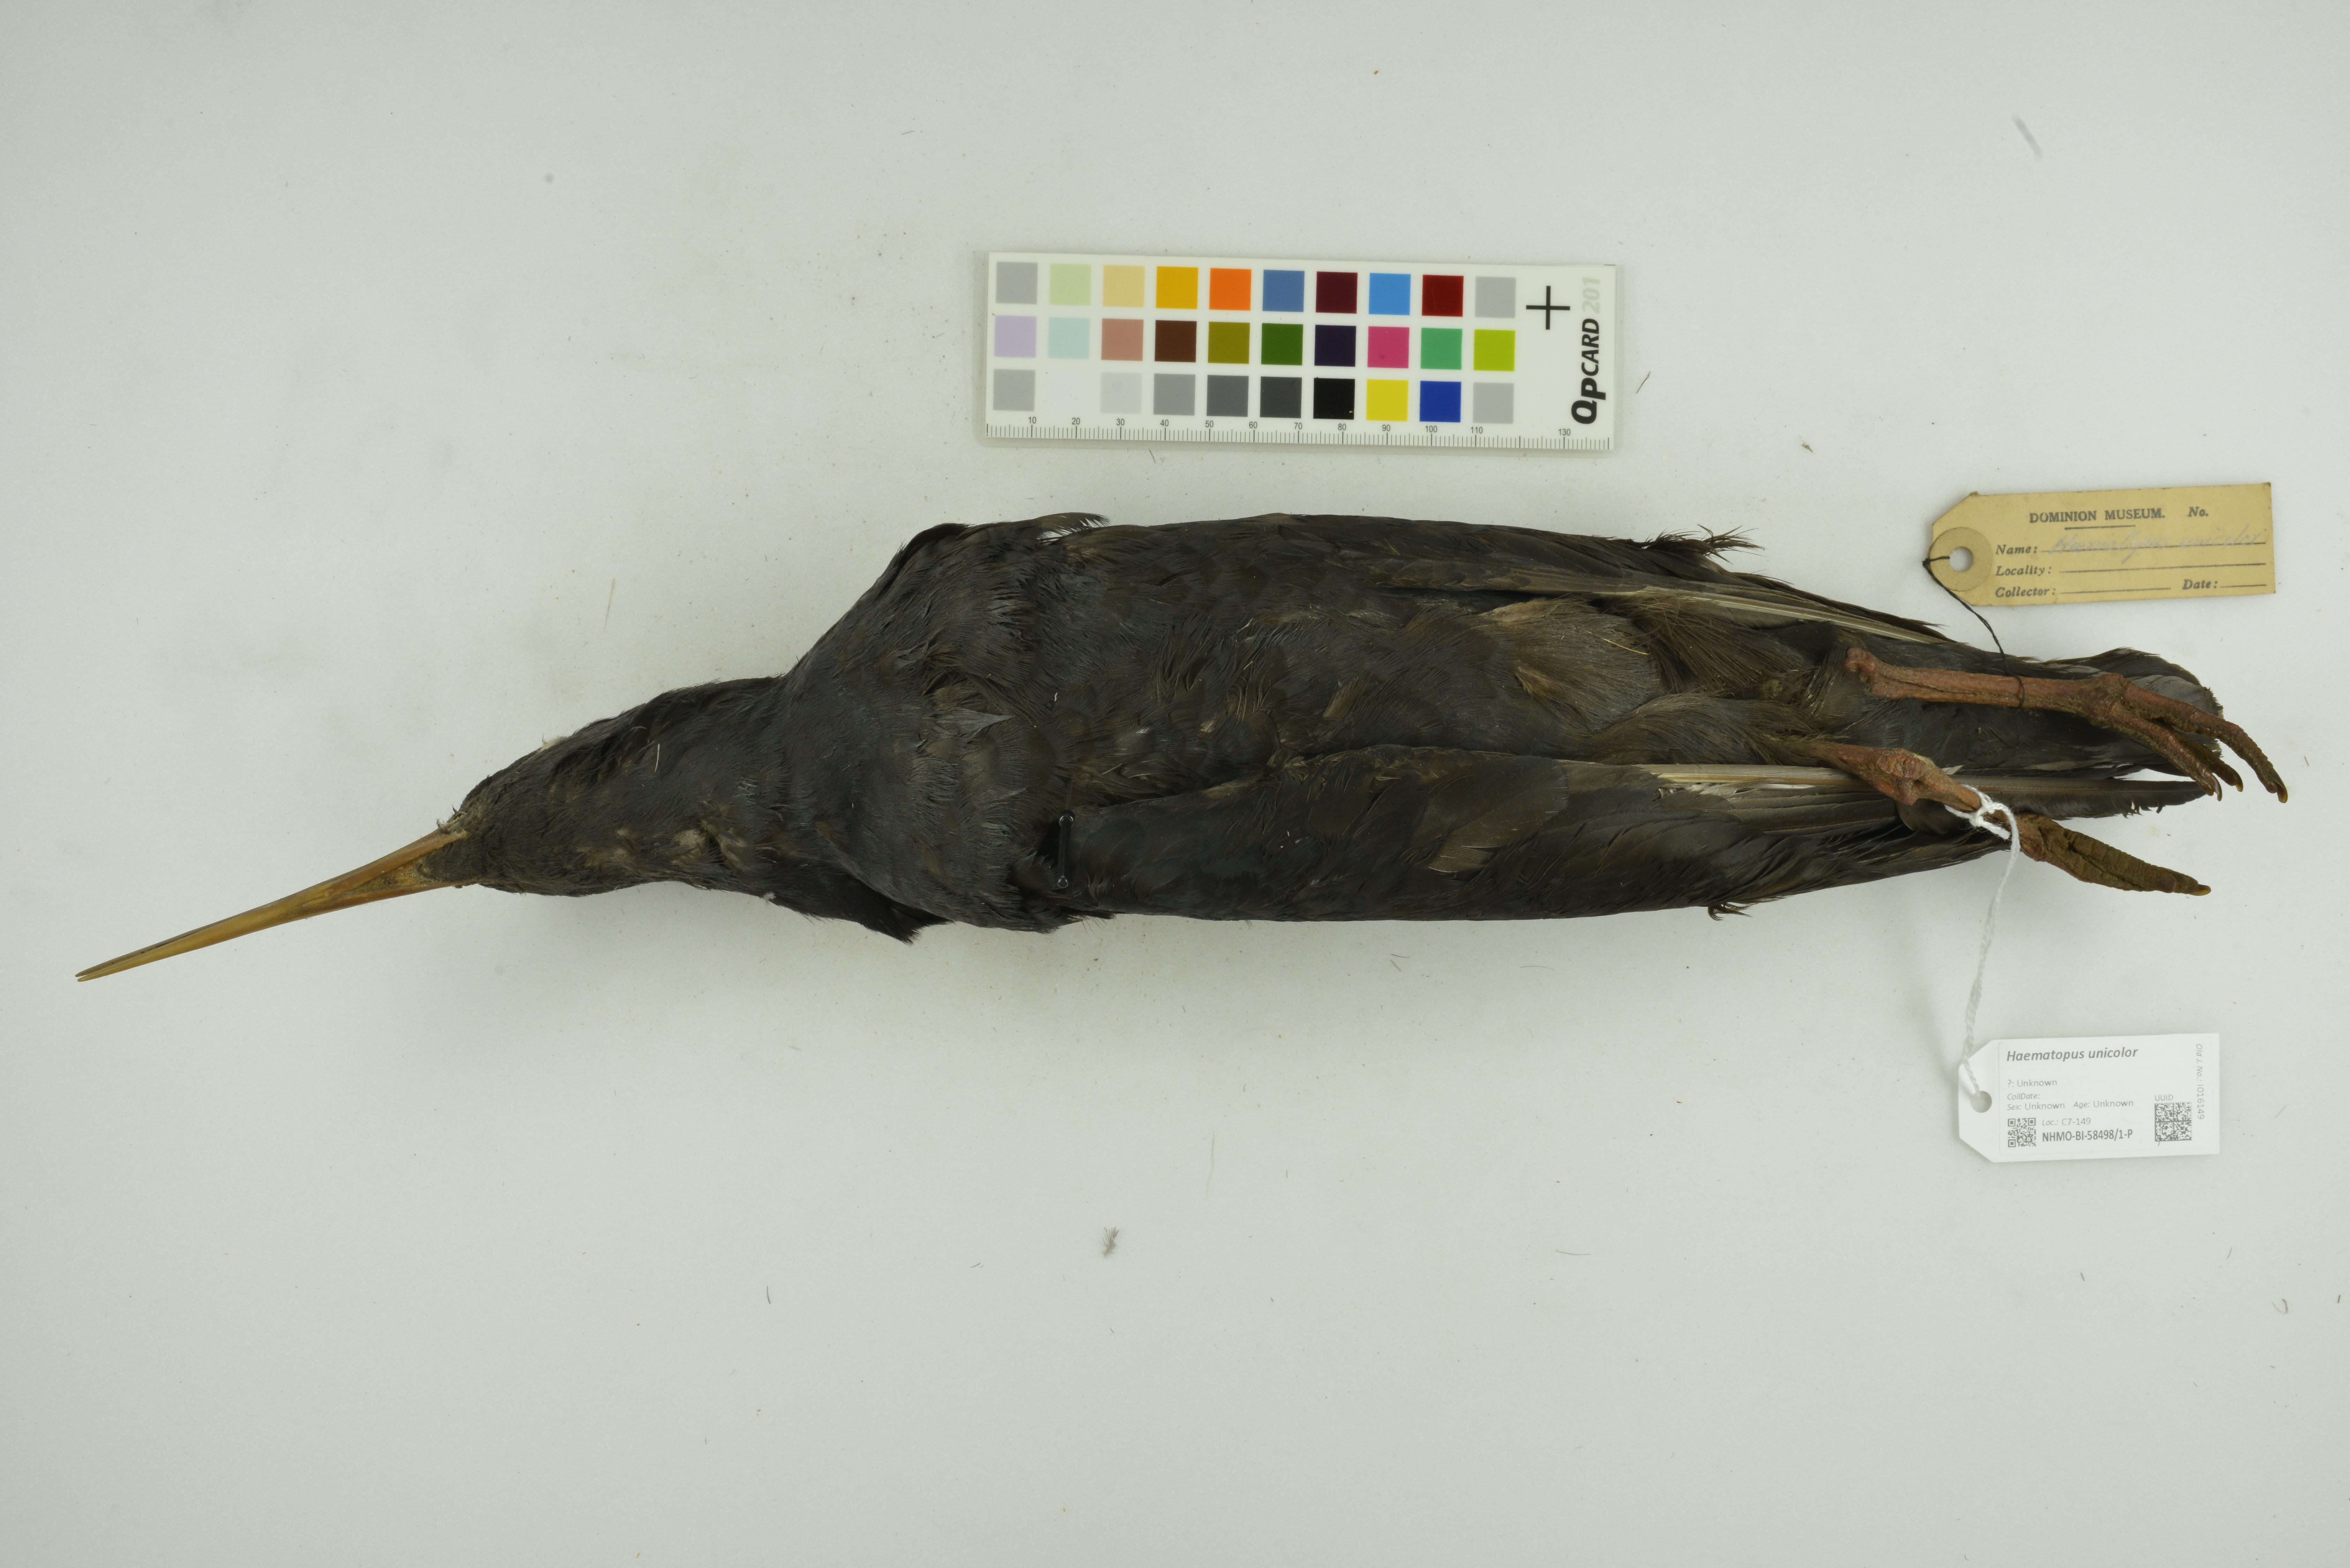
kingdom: Animalia
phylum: Chordata
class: Aves
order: Charadriiformes
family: Haematopodidae
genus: Haematopus
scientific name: Haematopus unicolor
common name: Variable oystercatcher
